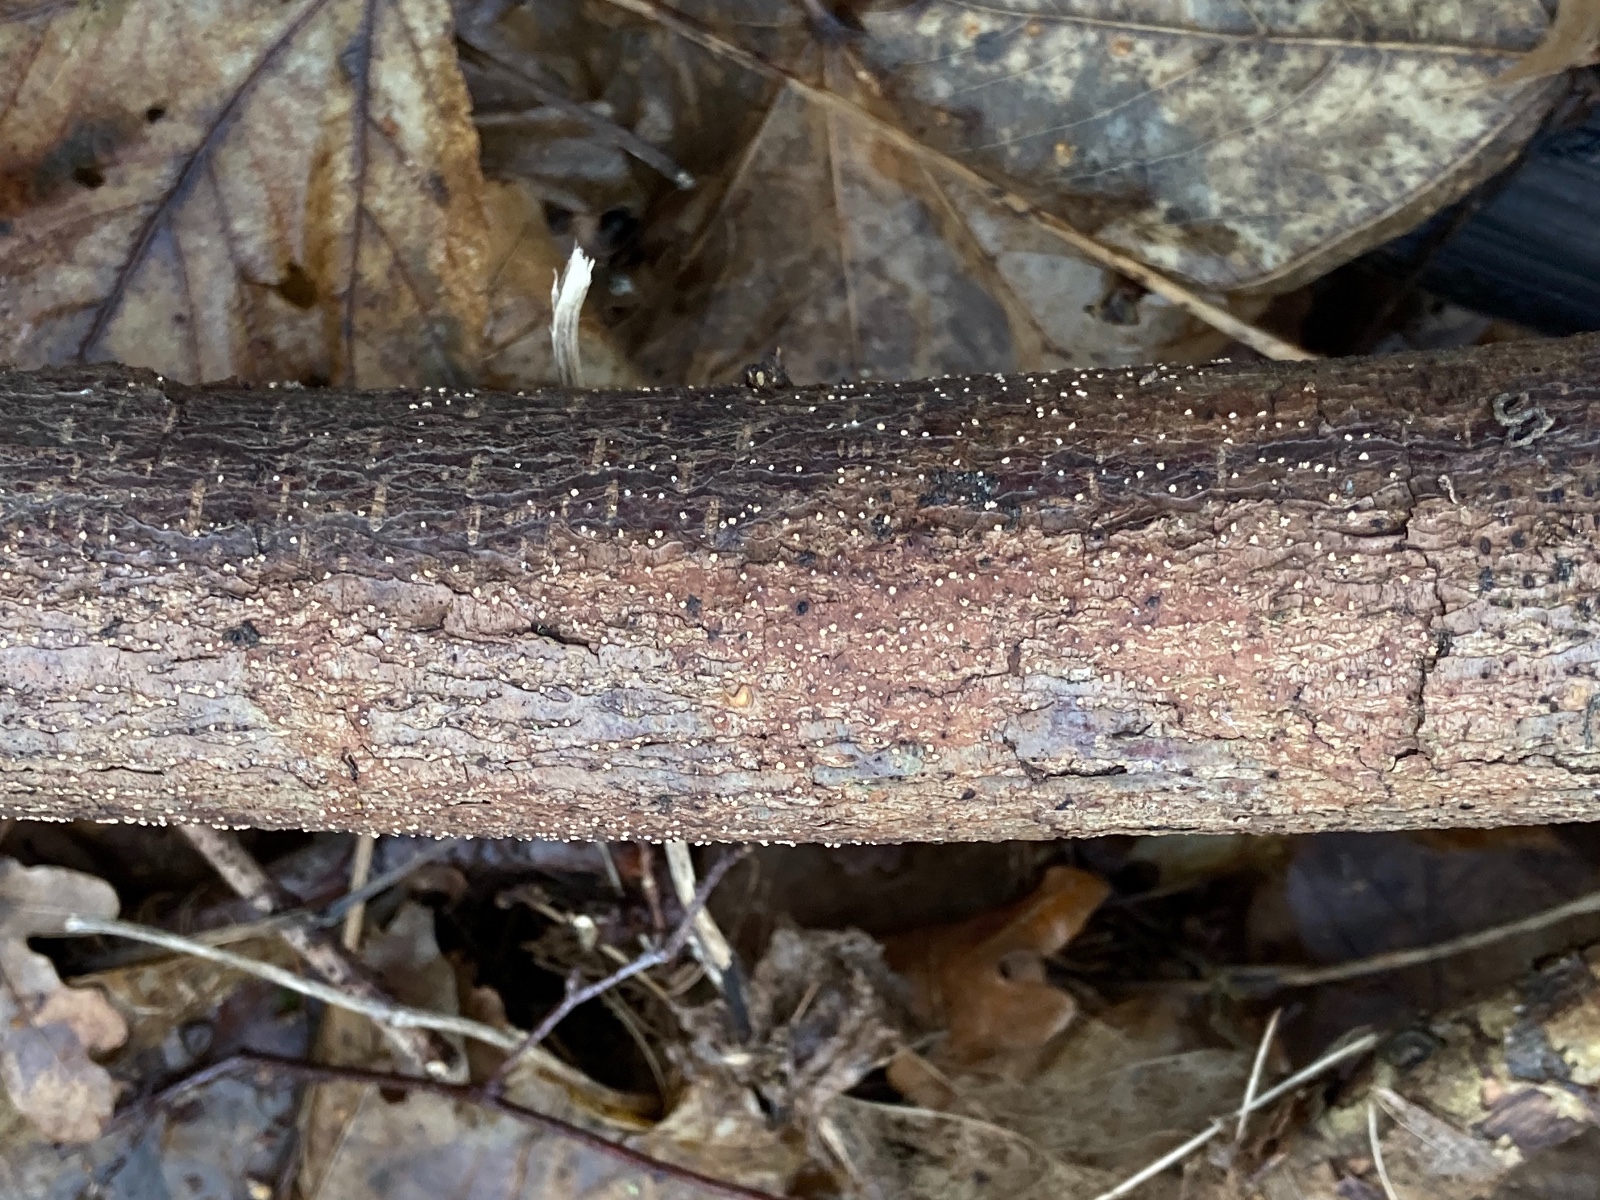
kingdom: Fungi
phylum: Ascomycota
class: Sordariomycetes
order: Hypocreales
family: Flammocladiellaceae
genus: Flammocladiella
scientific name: Flammocladiella decora
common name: kulvulkan-cinnobersvamp
